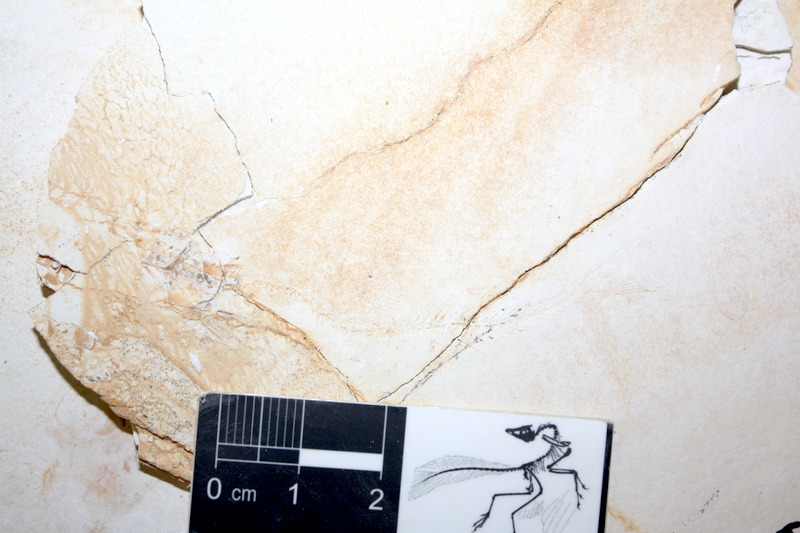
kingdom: Animalia
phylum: Chordata
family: Allothrissopidae
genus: Allothrissops
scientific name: Allothrissops mesogaster
